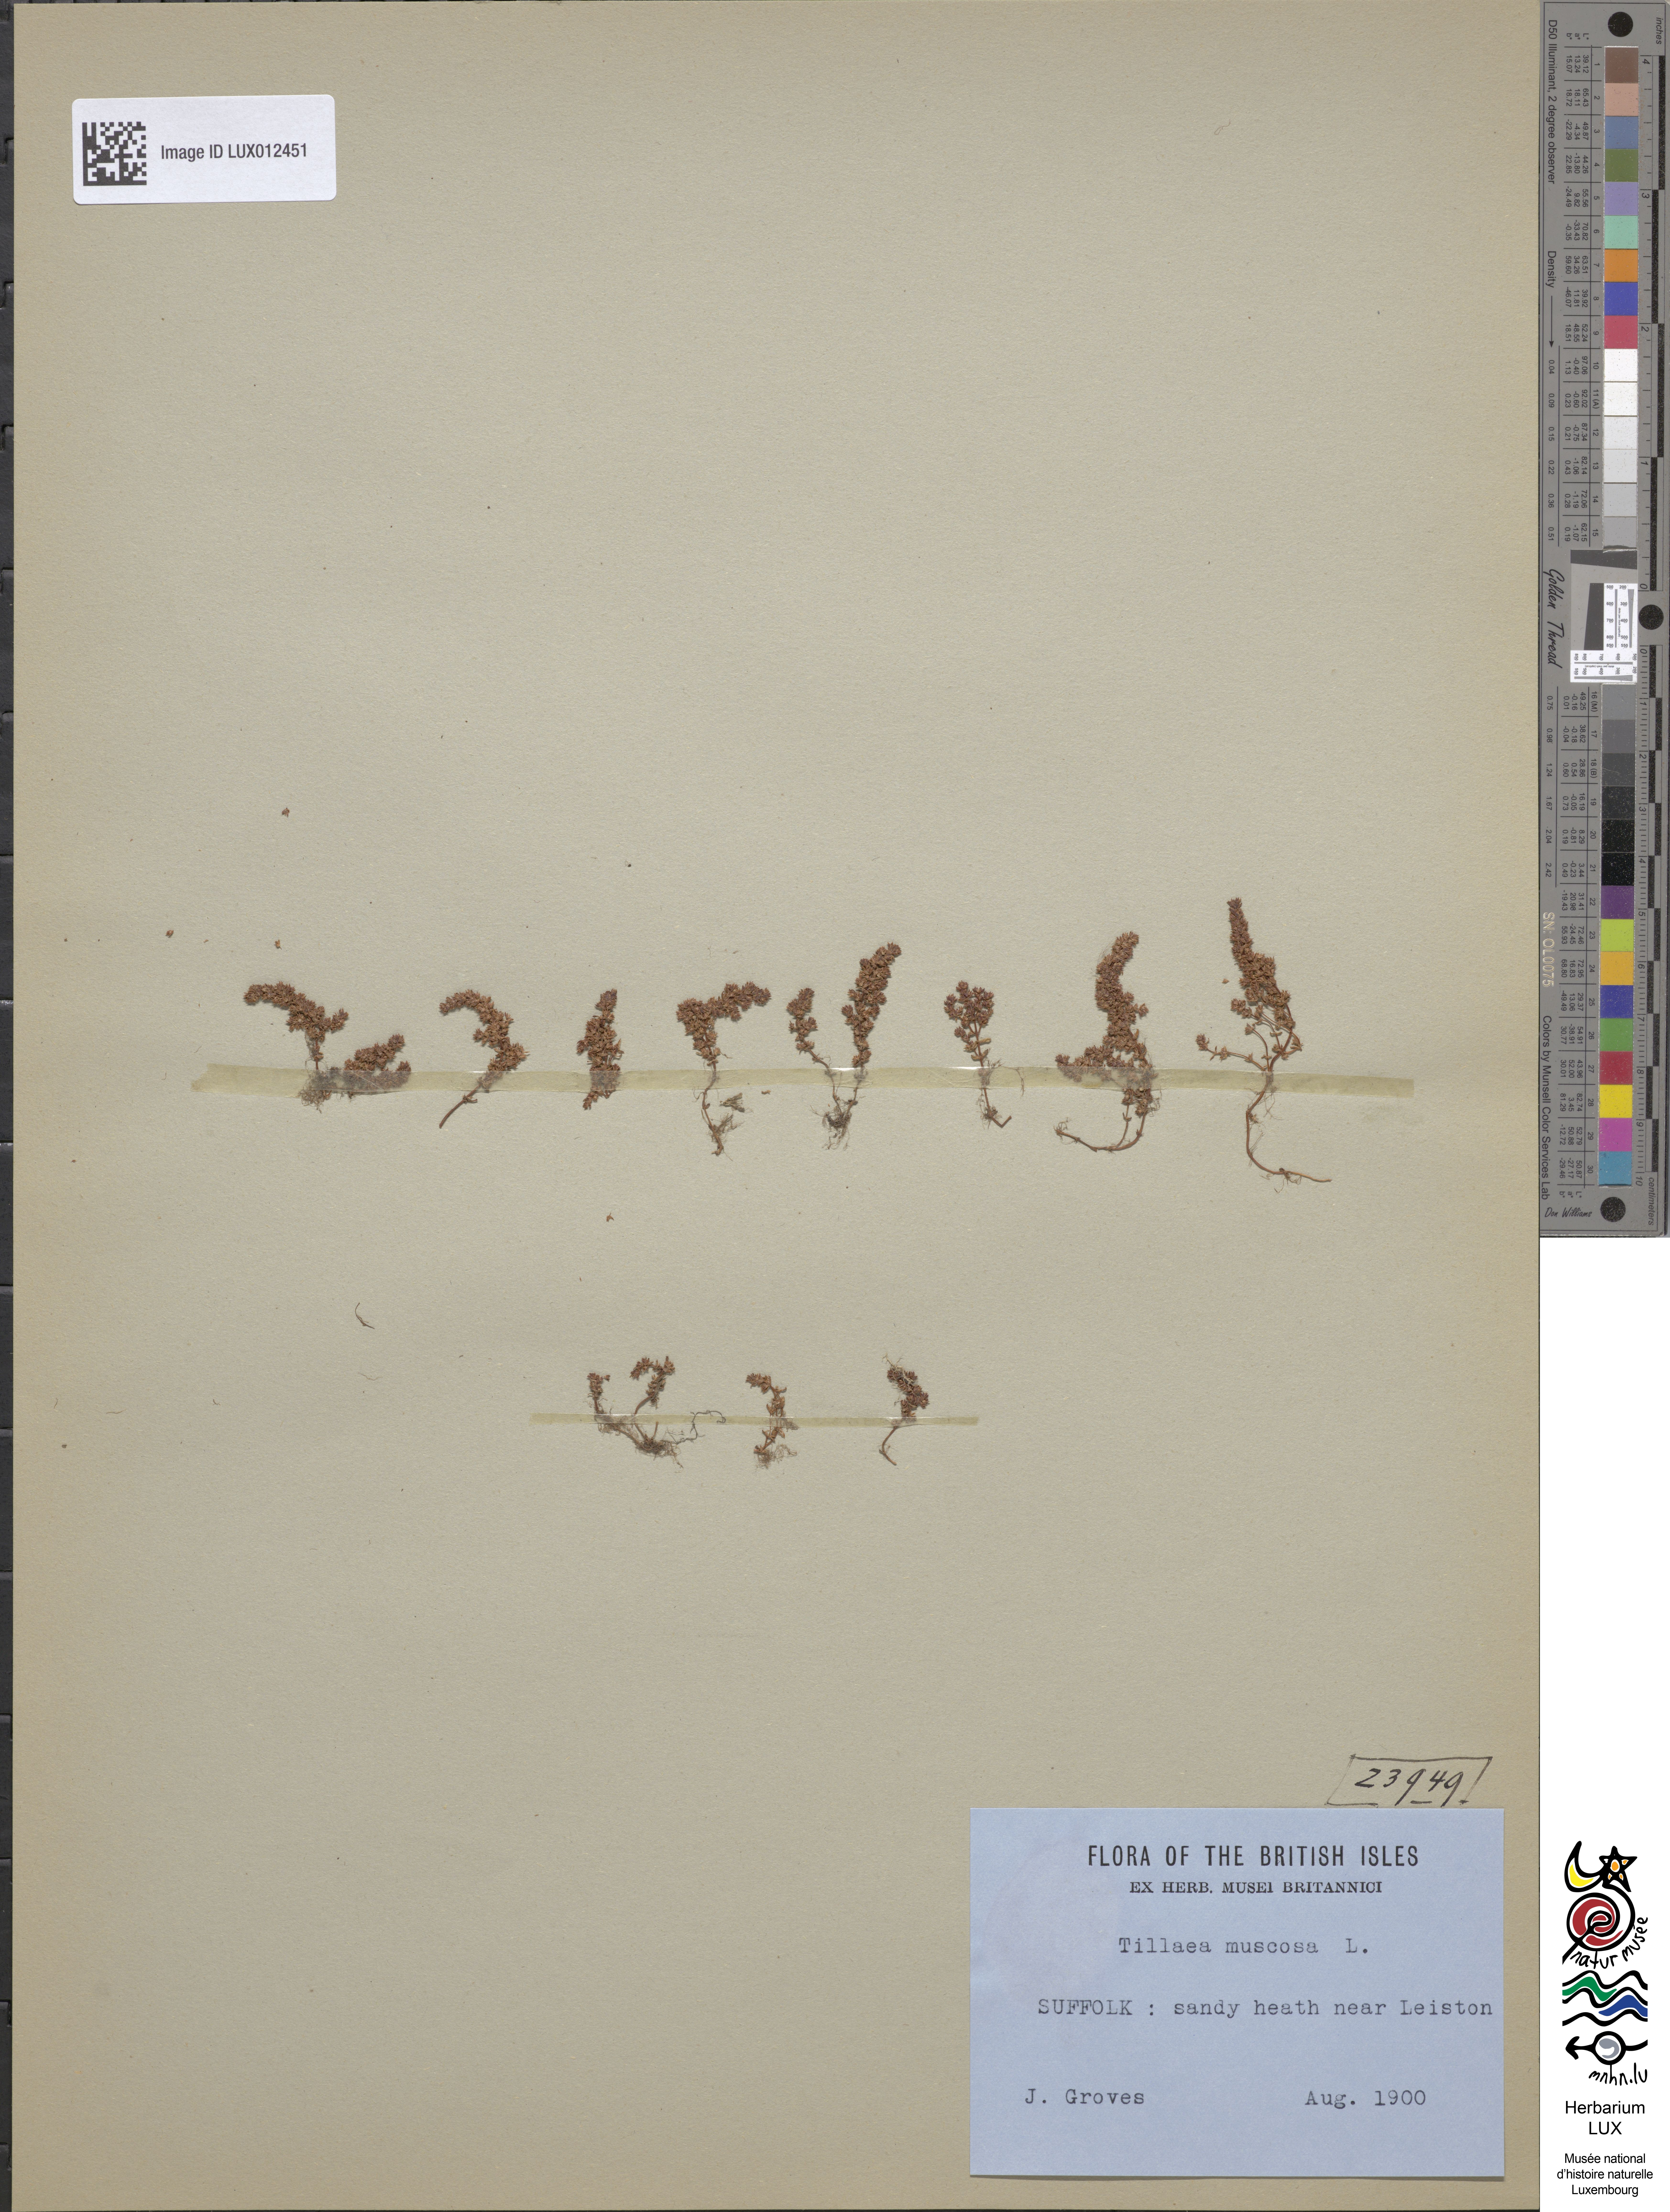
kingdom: Plantae
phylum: Tracheophyta
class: Magnoliopsida
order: Saxifragales
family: Crassulaceae
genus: Crassula
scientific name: Crassula tillaea
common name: Mossy stonecrop
